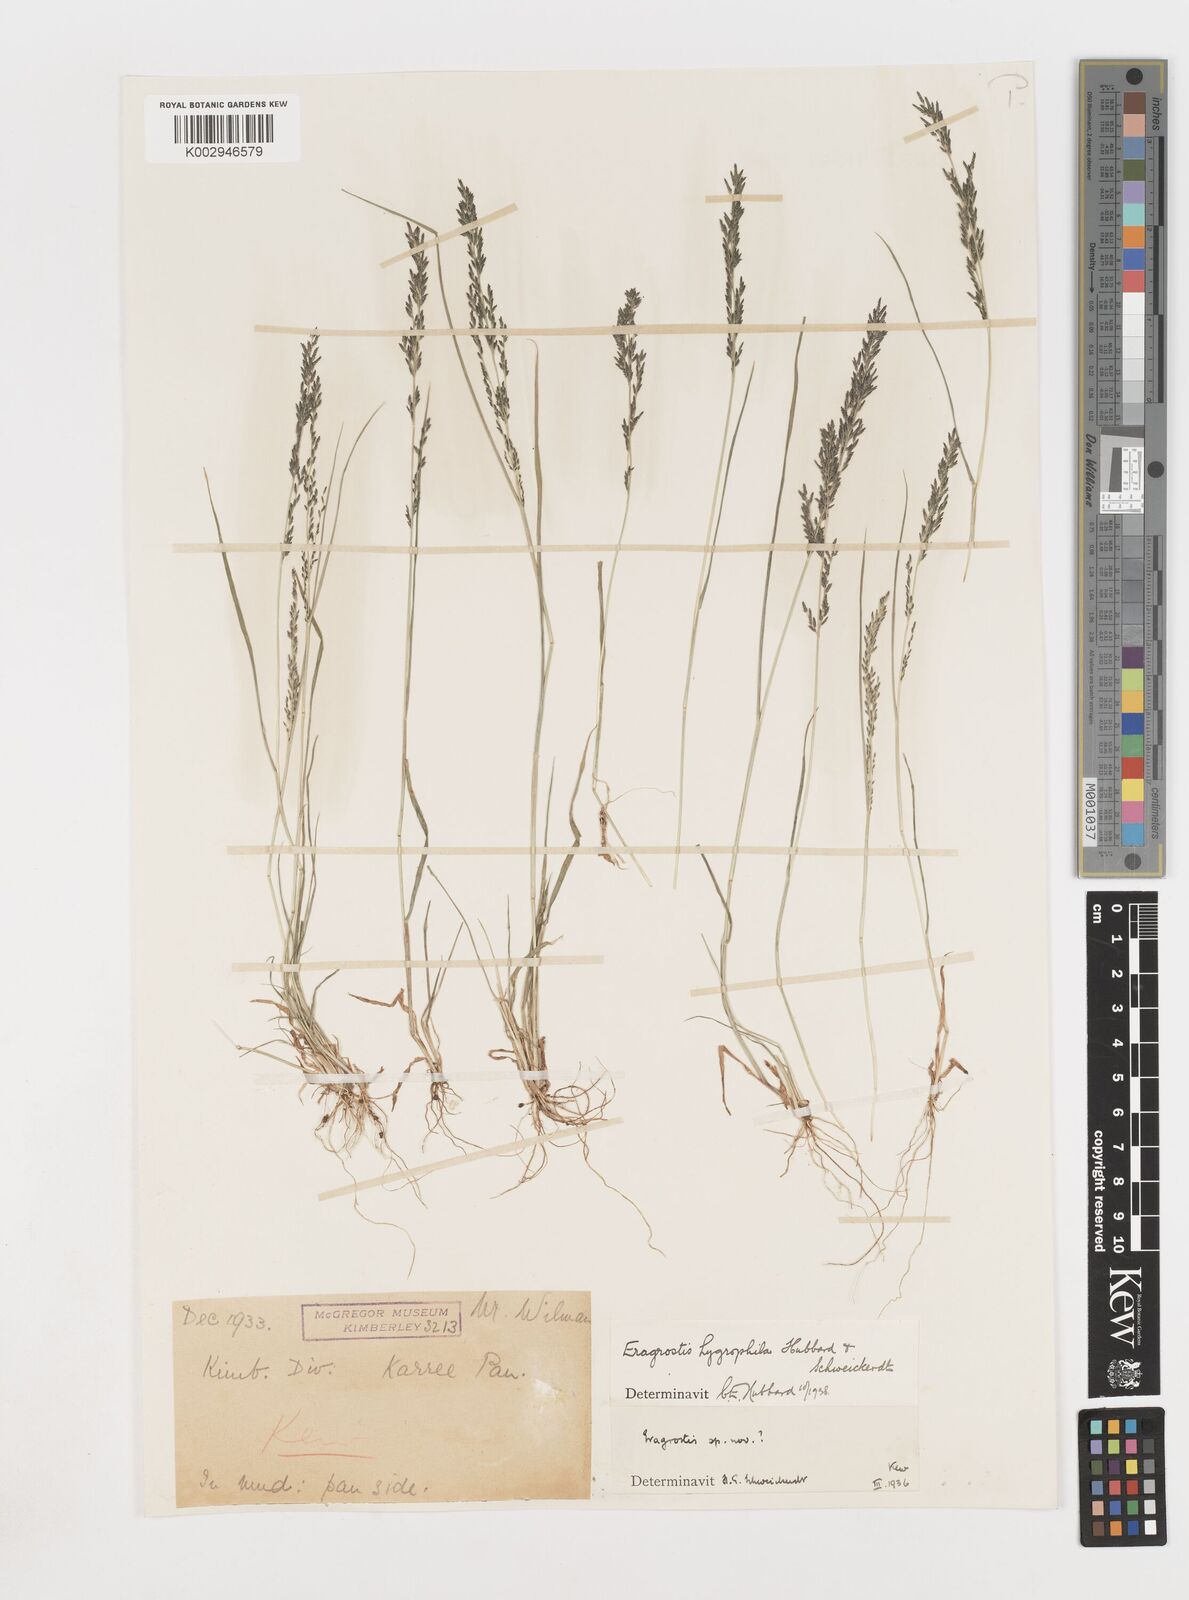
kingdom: Plantae
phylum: Tracheophyta
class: Liliopsida
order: Poales
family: Poaceae
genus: Eragrostis
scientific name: Eragrostis homomalla
